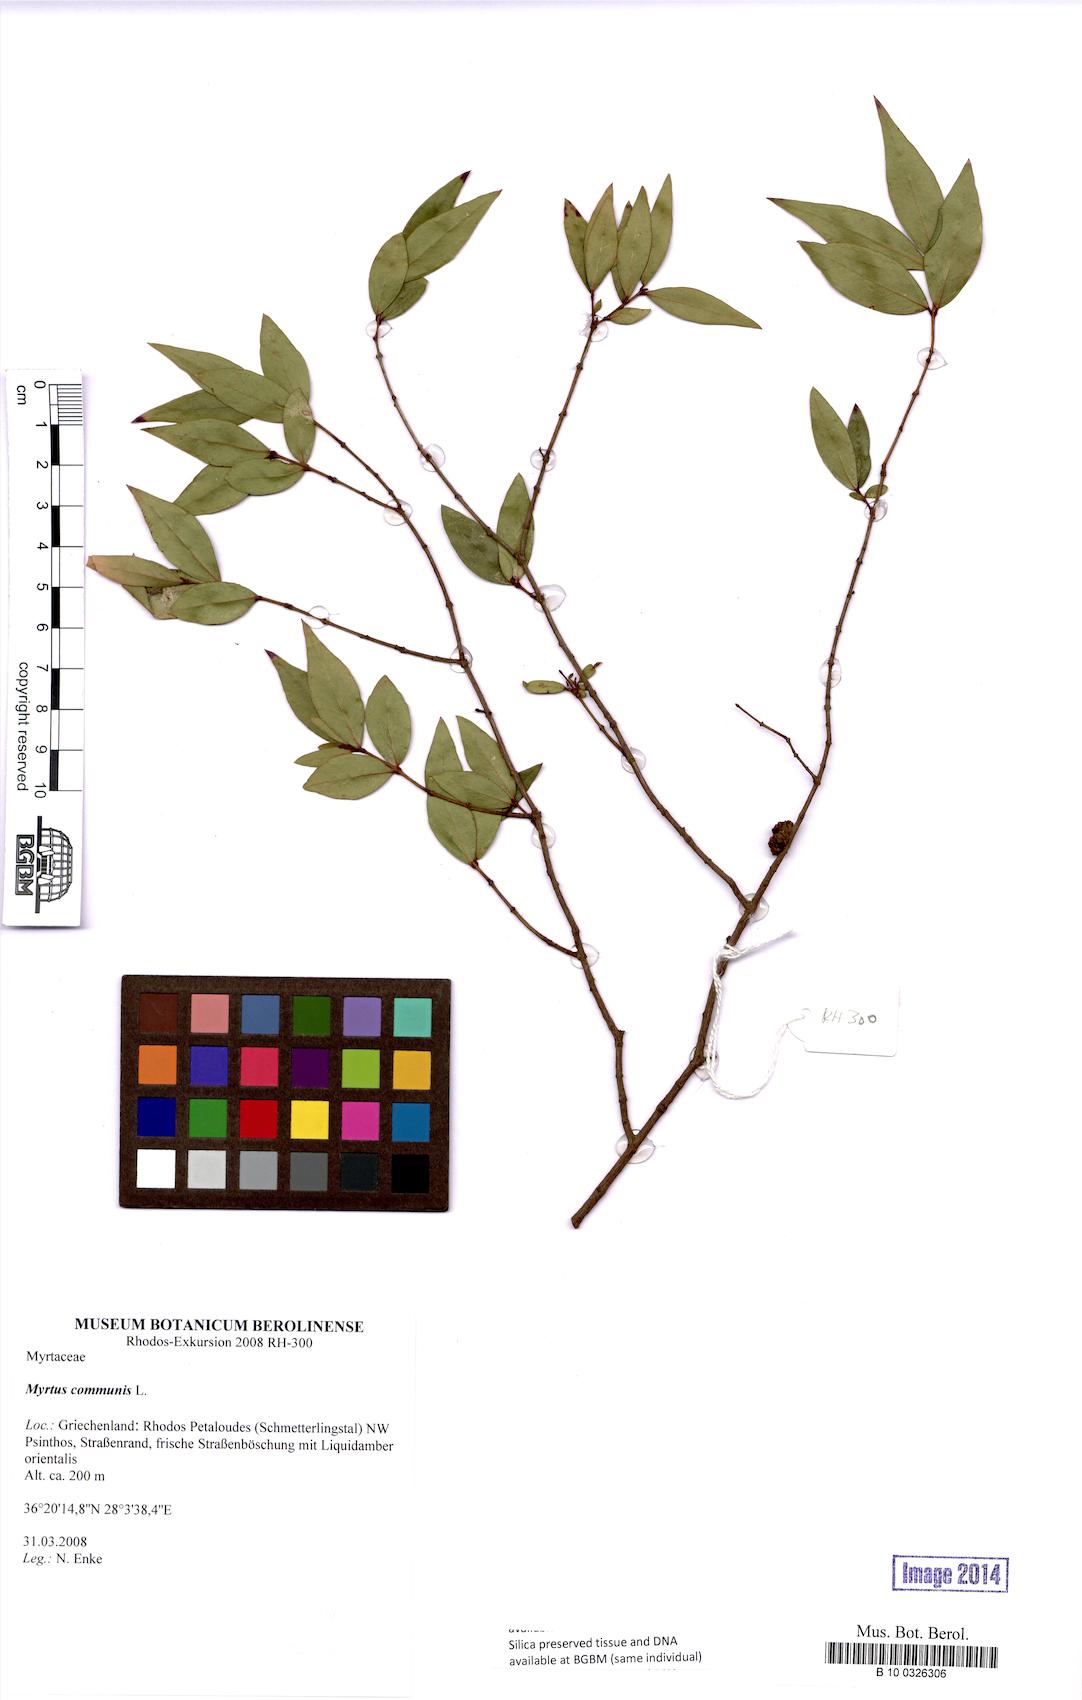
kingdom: Plantae
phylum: Tracheophyta
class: Magnoliopsida
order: Myrtales
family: Myrtaceae
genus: Myrtus
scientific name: Myrtus communis
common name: Myrtle
